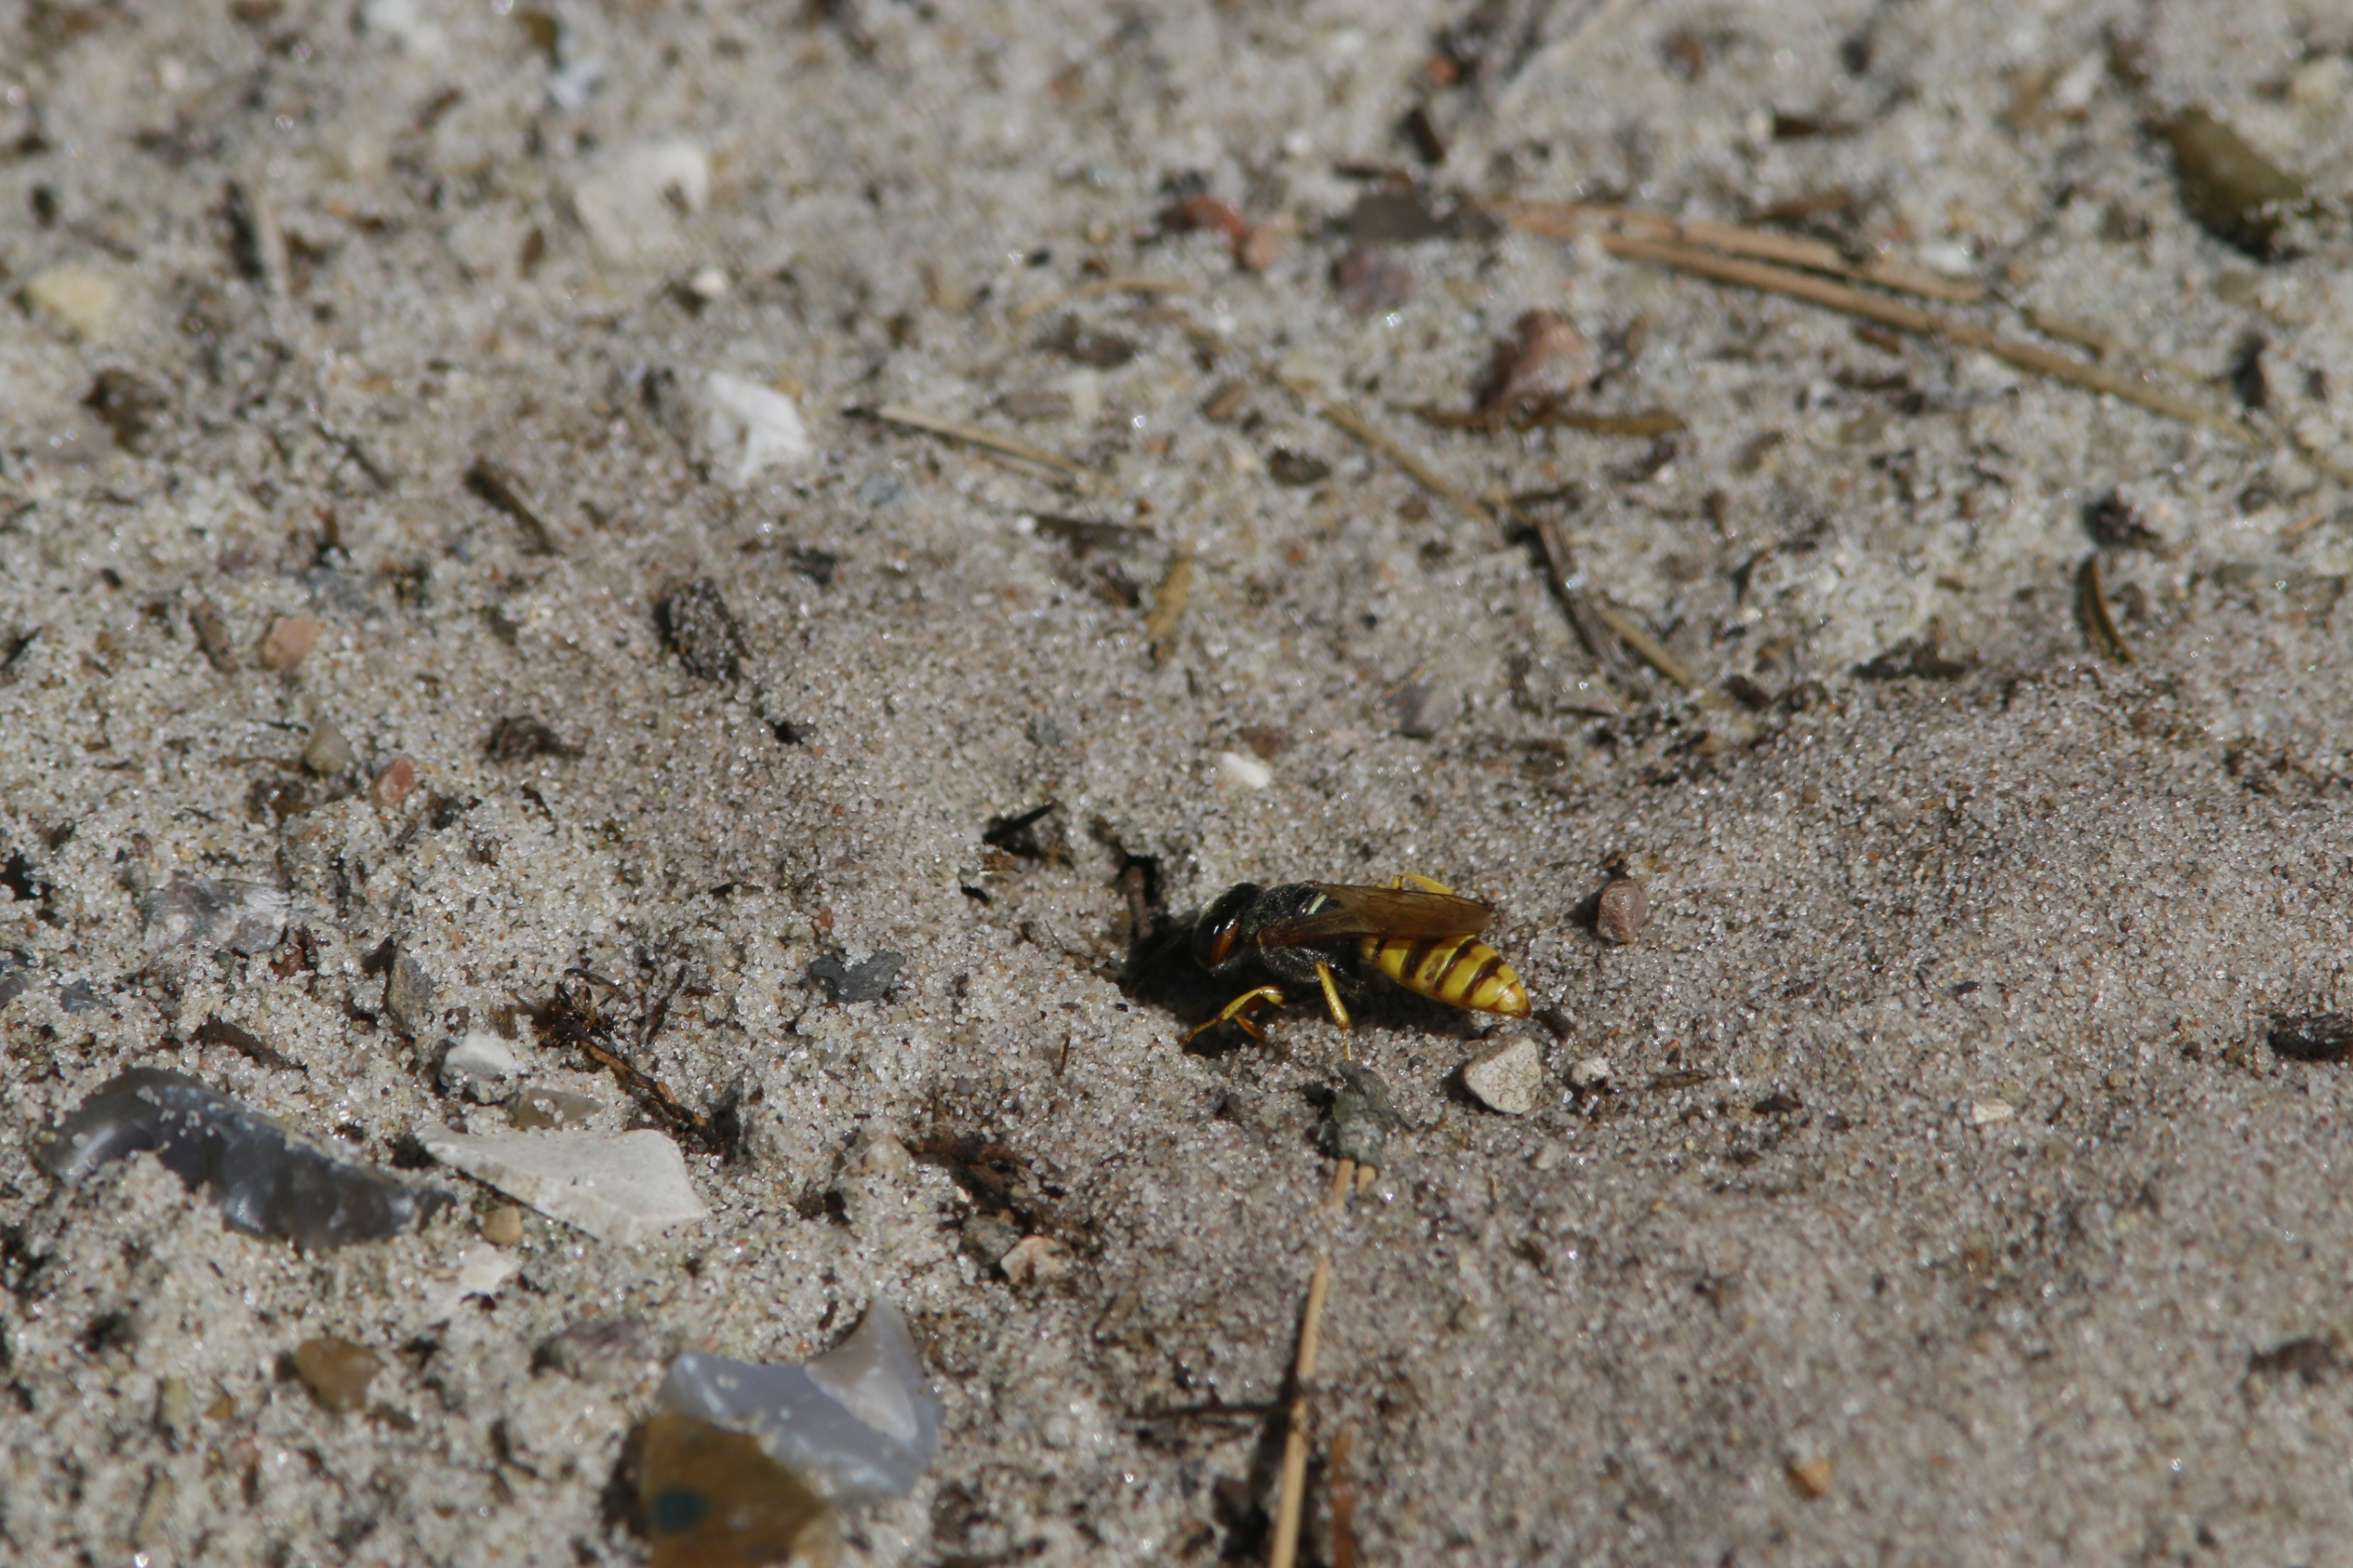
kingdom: Animalia
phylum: Arthropoda
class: Insecta
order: Hymenoptera
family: Crabronidae
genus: Philanthus
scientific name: Philanthus triangulum
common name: Biulv
